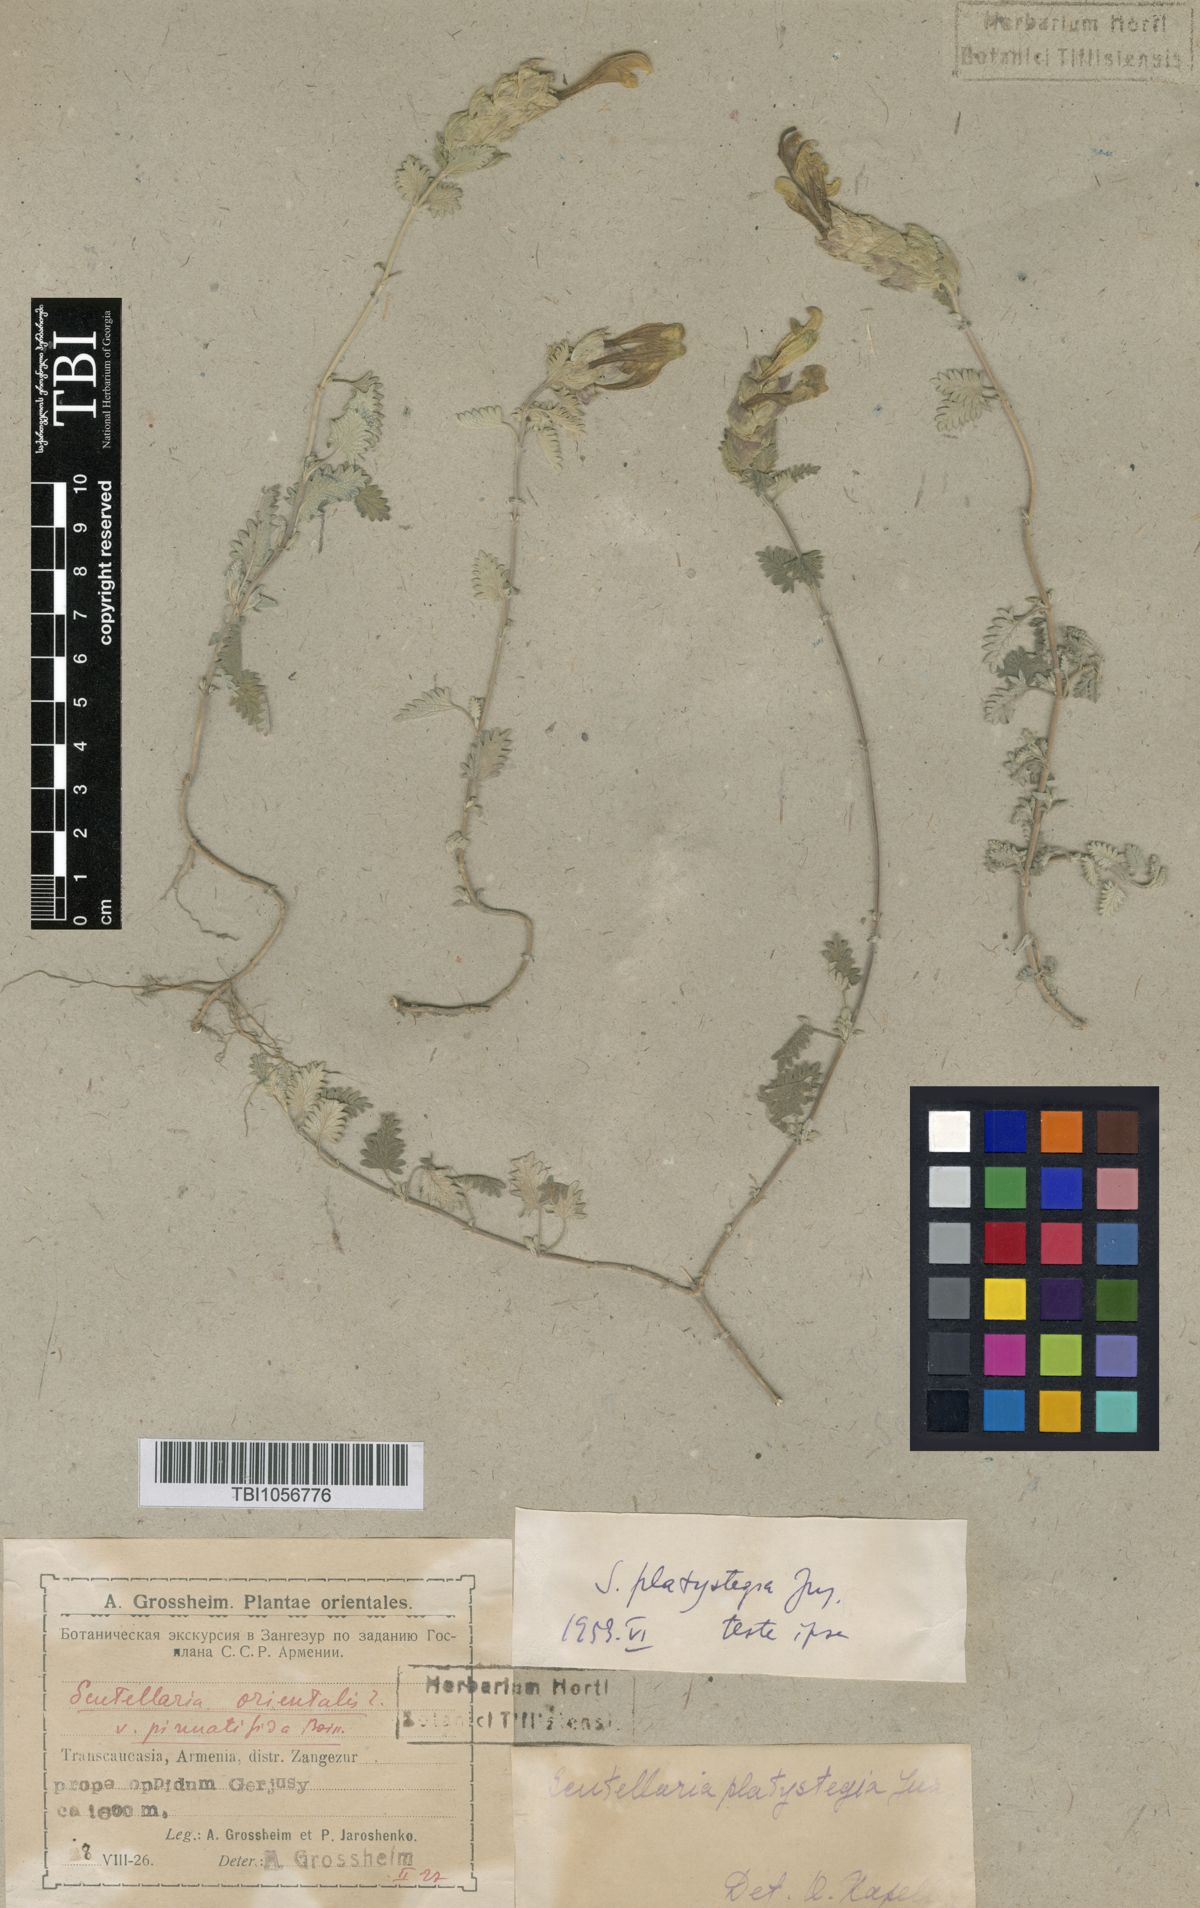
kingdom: Plantae
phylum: Tracheophyta
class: Magnoliopsida
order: Lamiales
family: Lamiaceae
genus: Scutellaria
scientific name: Scutellaria platystegia
